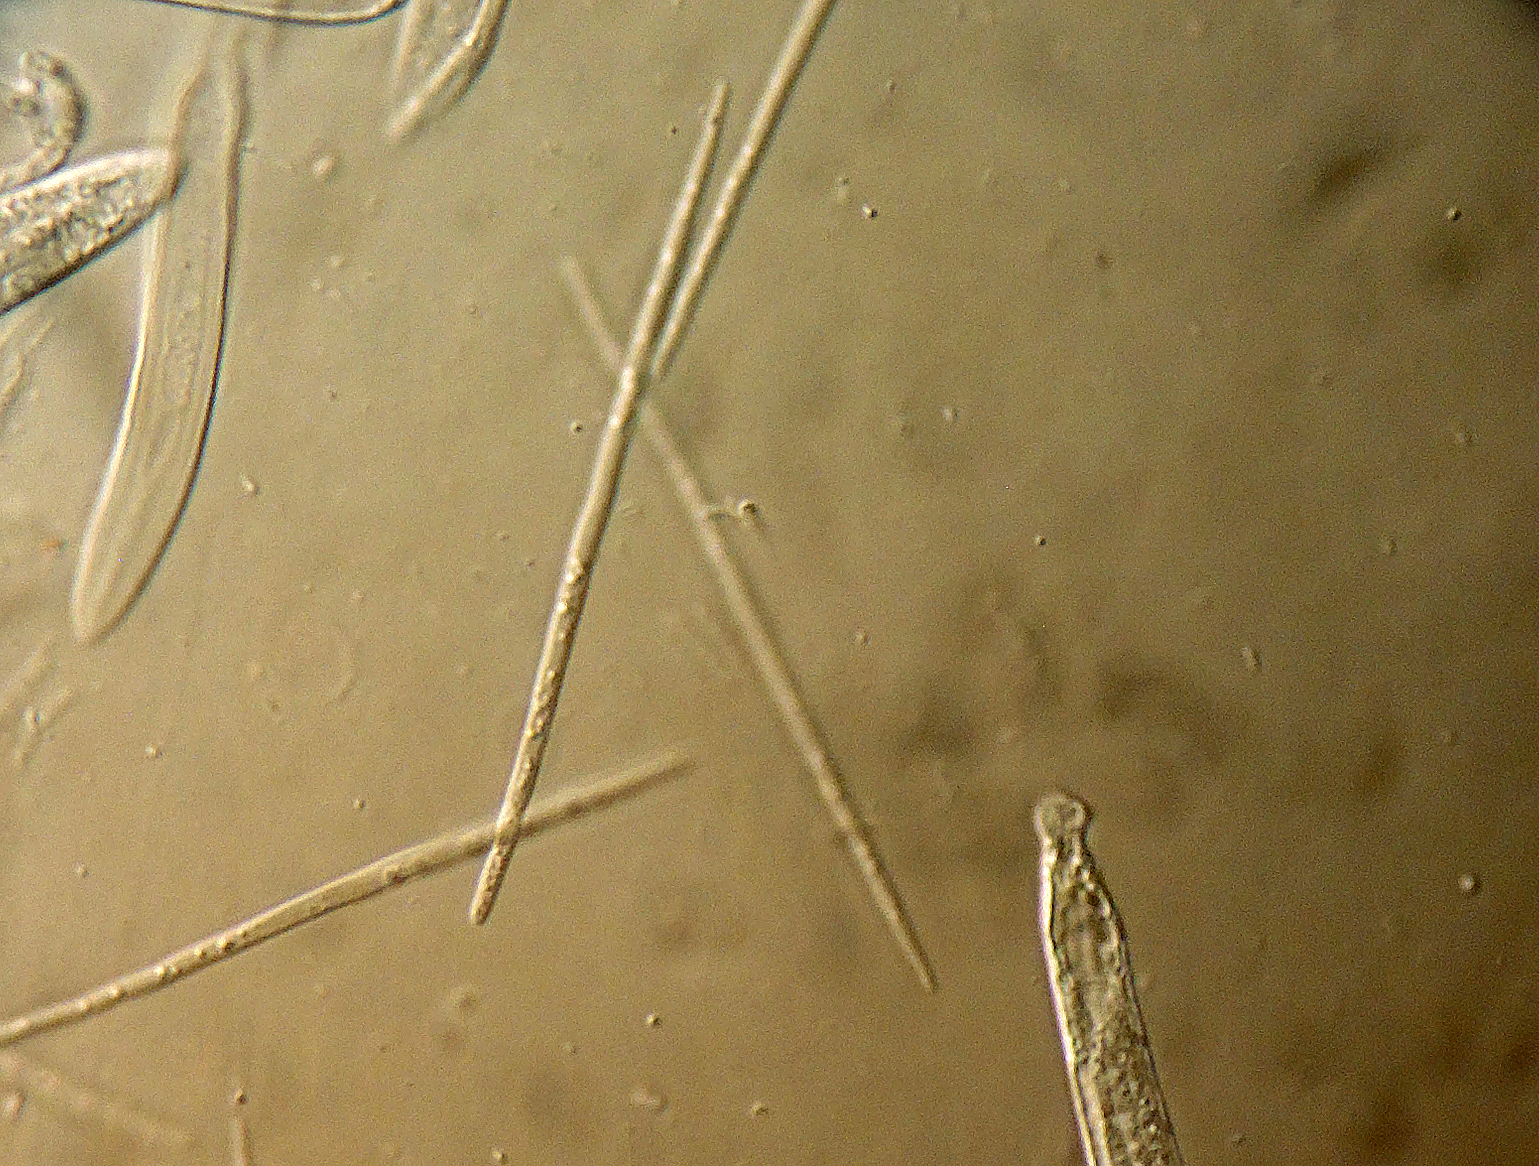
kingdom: Fungi
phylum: Ascomycota
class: Leotiomycetes
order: Rhytismatales
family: Rhytismataceae
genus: Lophodermium
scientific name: Lophodermium
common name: fureplet
